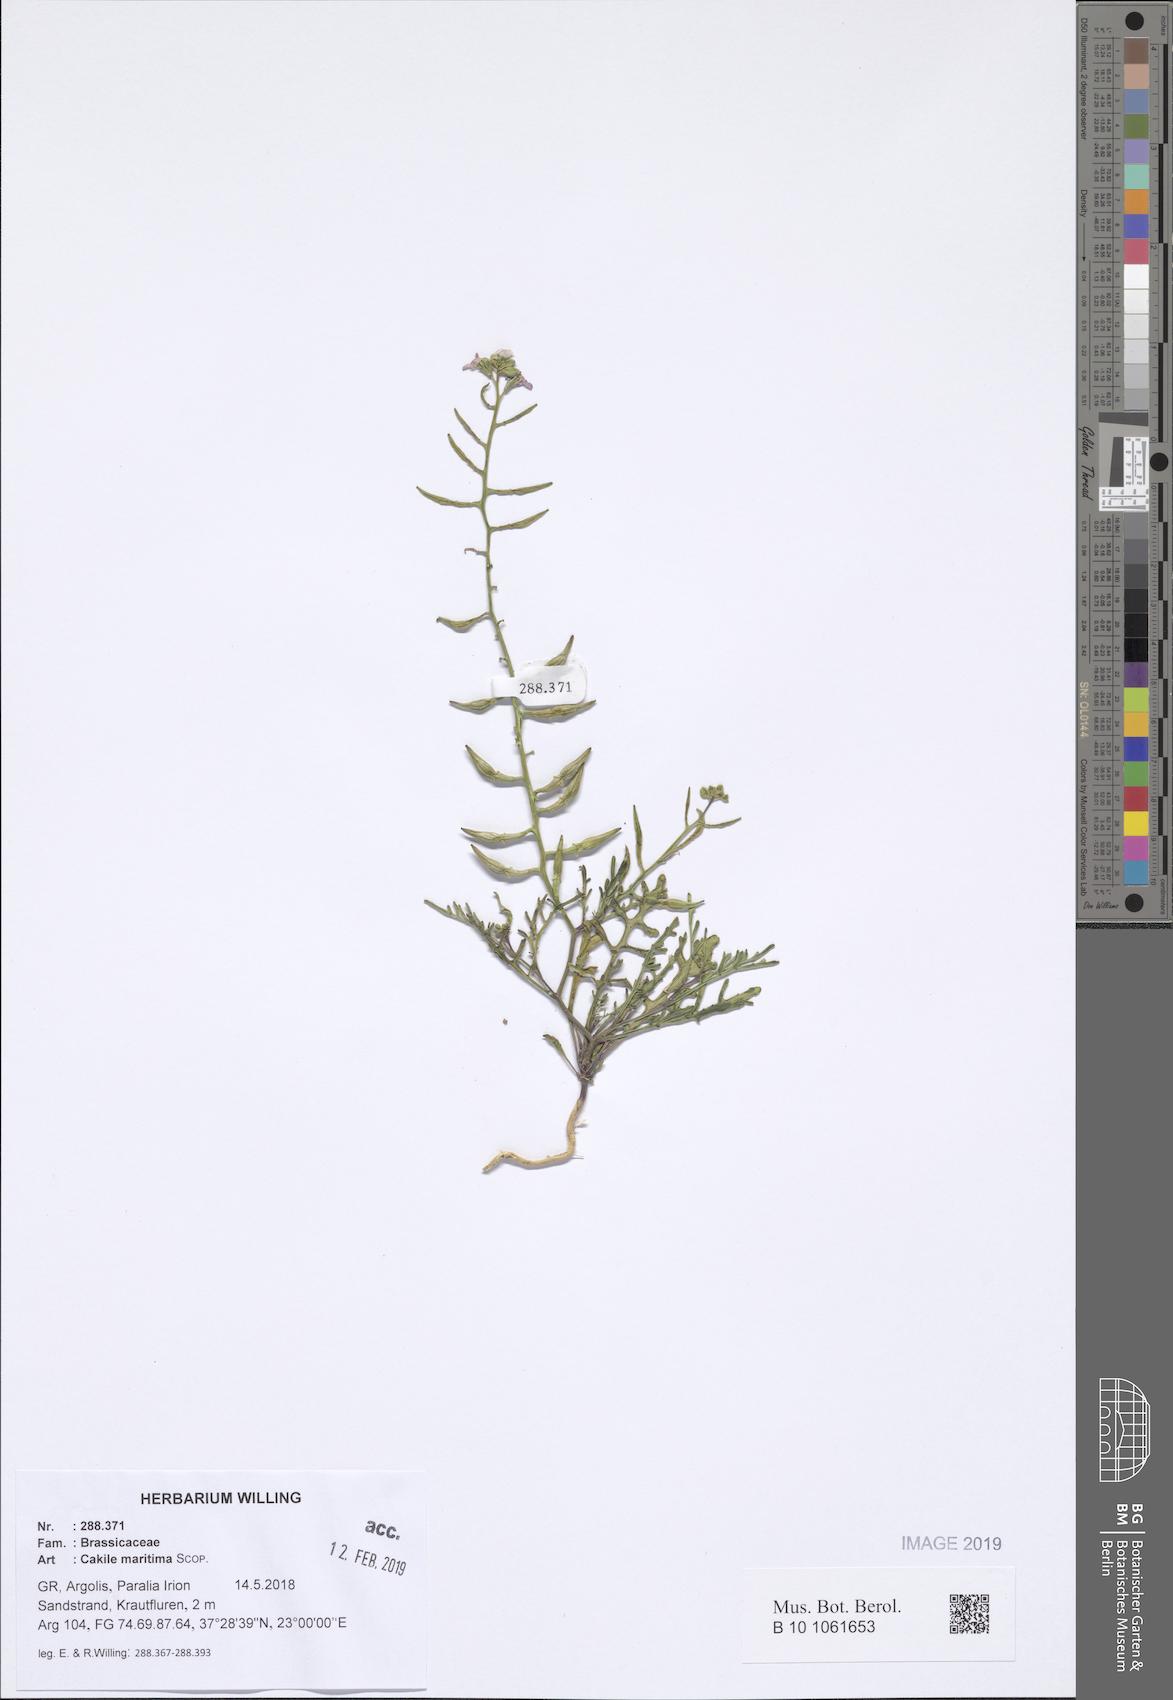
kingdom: Plantae
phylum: Tracheophyta
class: Magnoliopsida
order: Brassicales
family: Brassicaceae
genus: Cakile
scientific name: Cakile maritima
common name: Sea rocket
